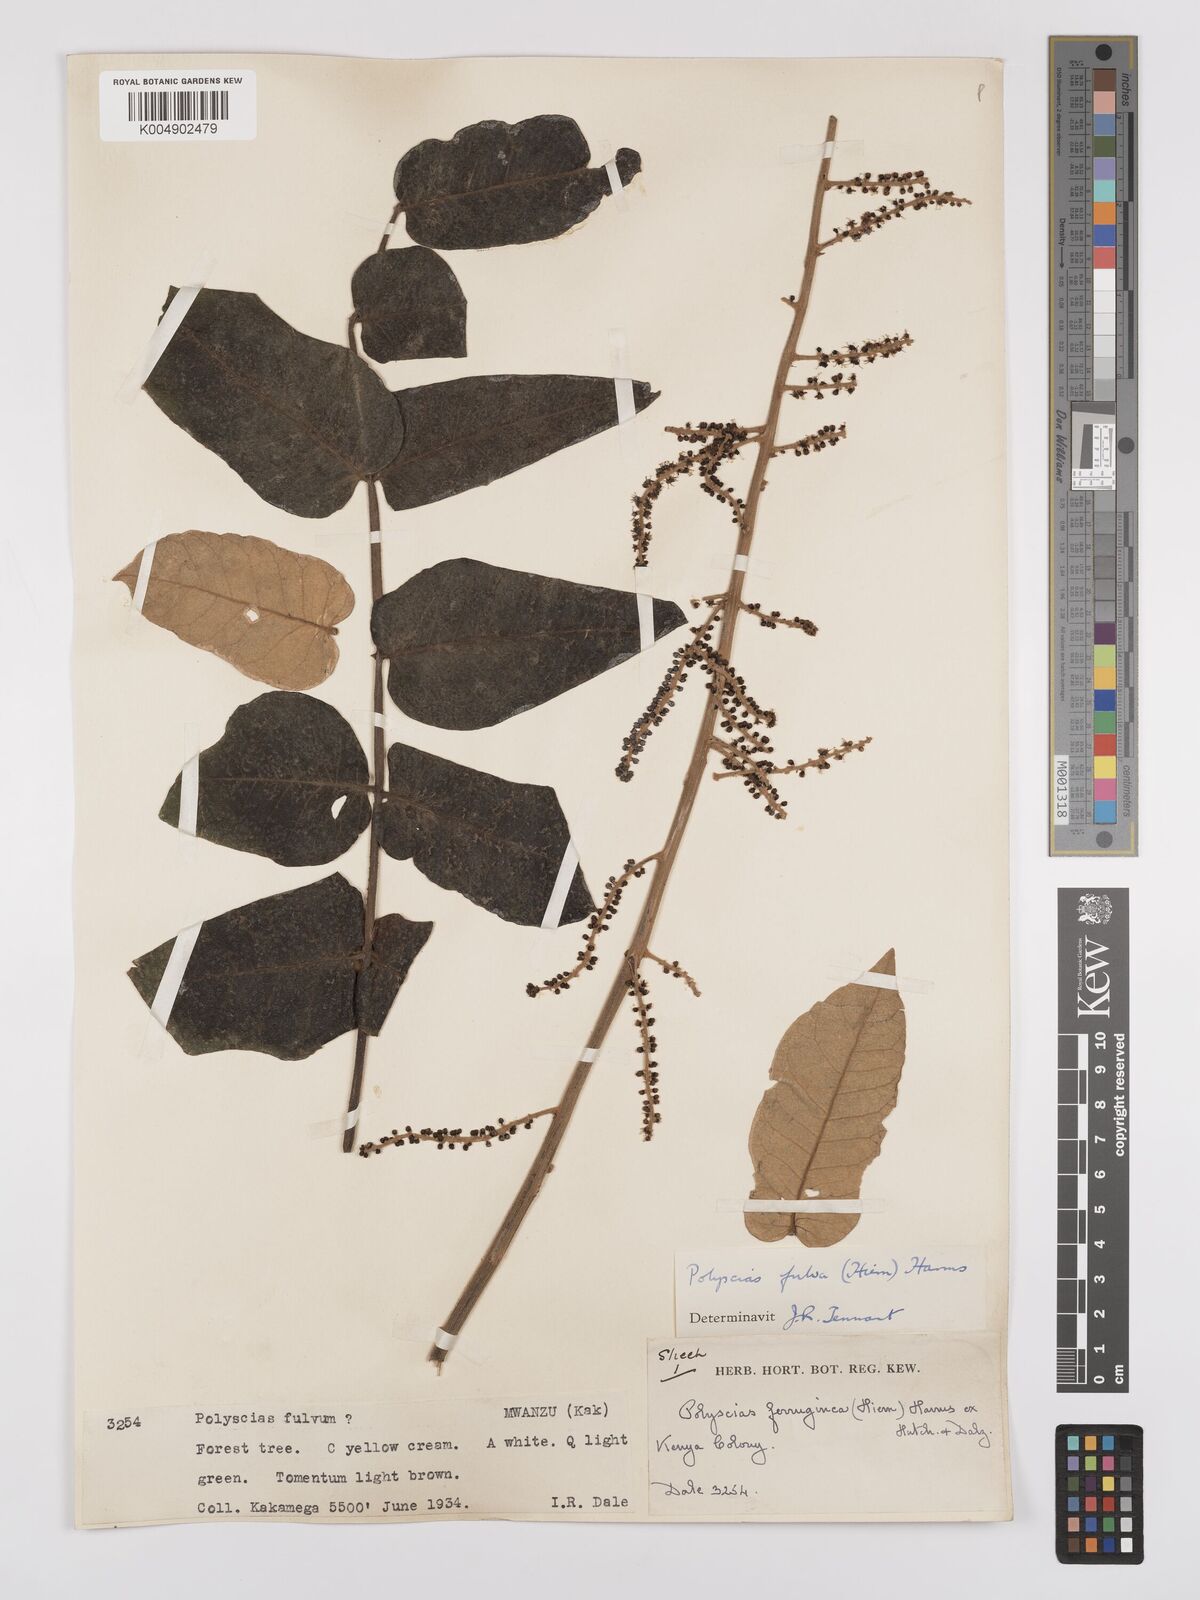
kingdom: Plantae
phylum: Tracheophyta
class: Magnoliopsida
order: Apiales
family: Araliaceae
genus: Polyscias
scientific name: Polyscias fulva
